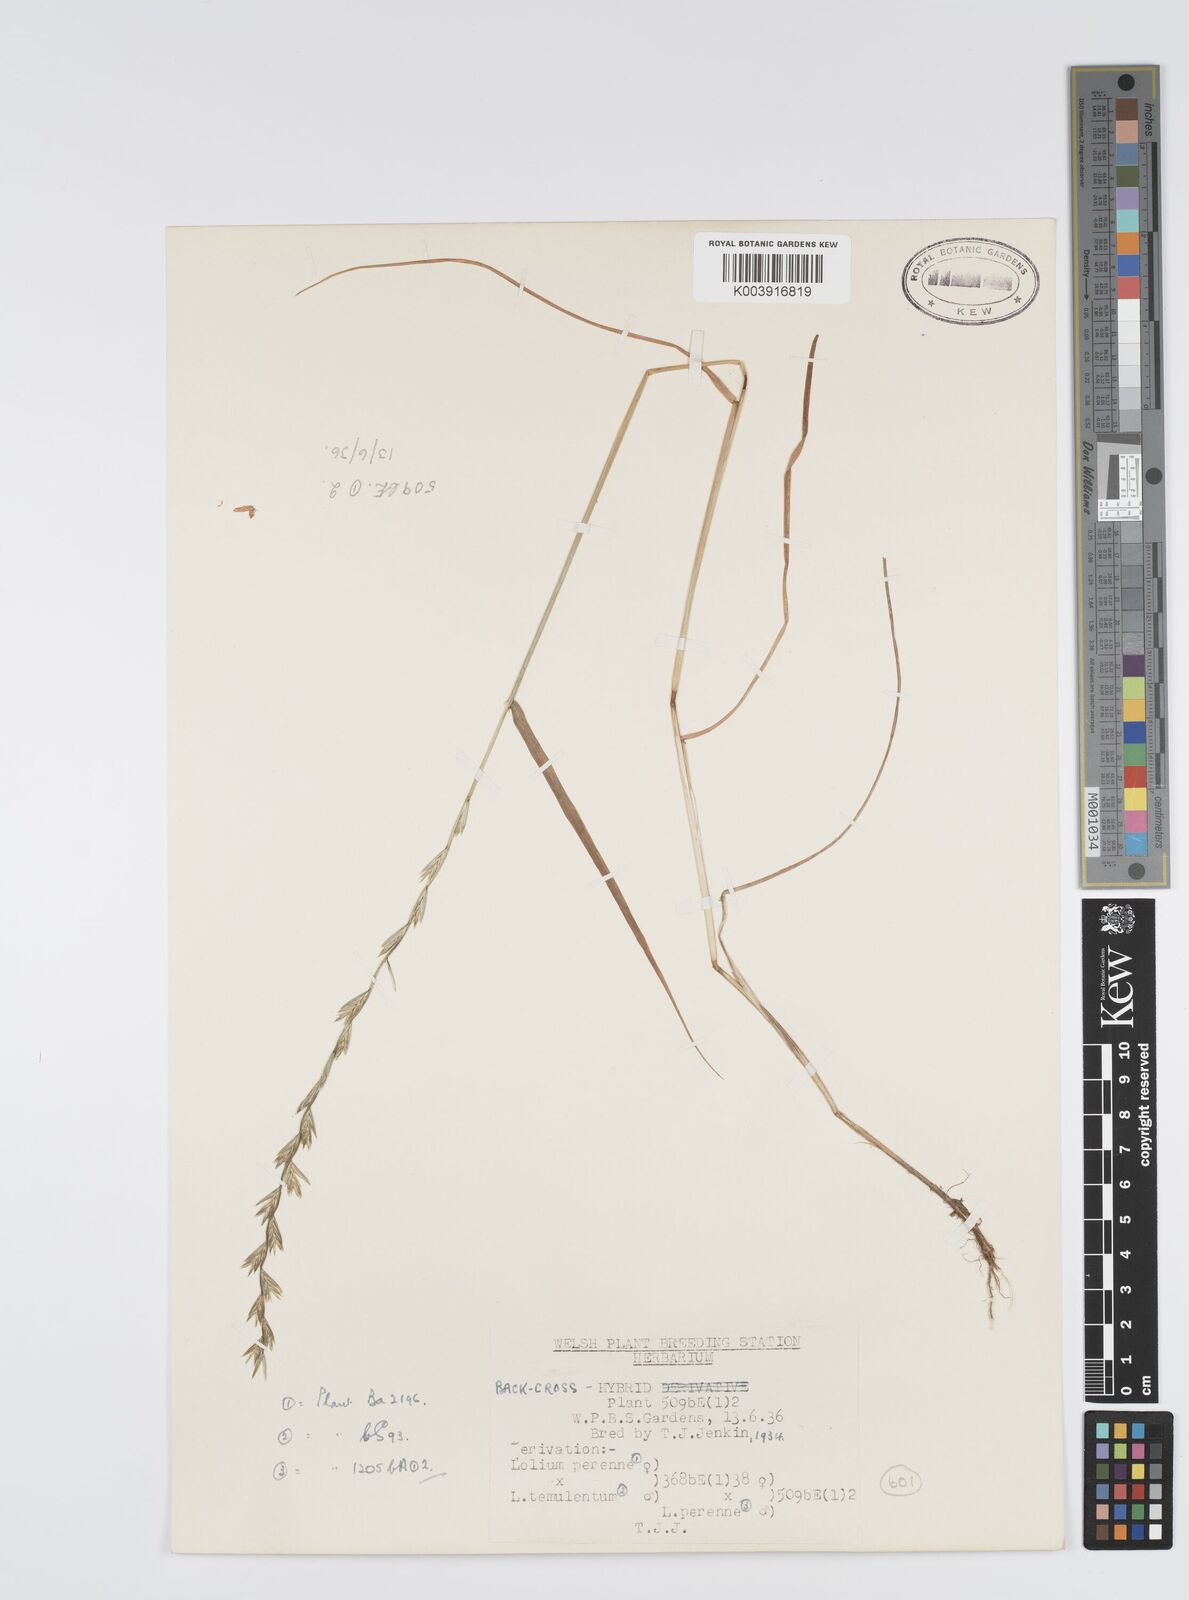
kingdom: Plantae
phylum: Tracheophyta
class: Liliopsida
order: Poales
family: Poaceae
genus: Lolium
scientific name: Lolium perenne
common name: Perennial ryegrass
